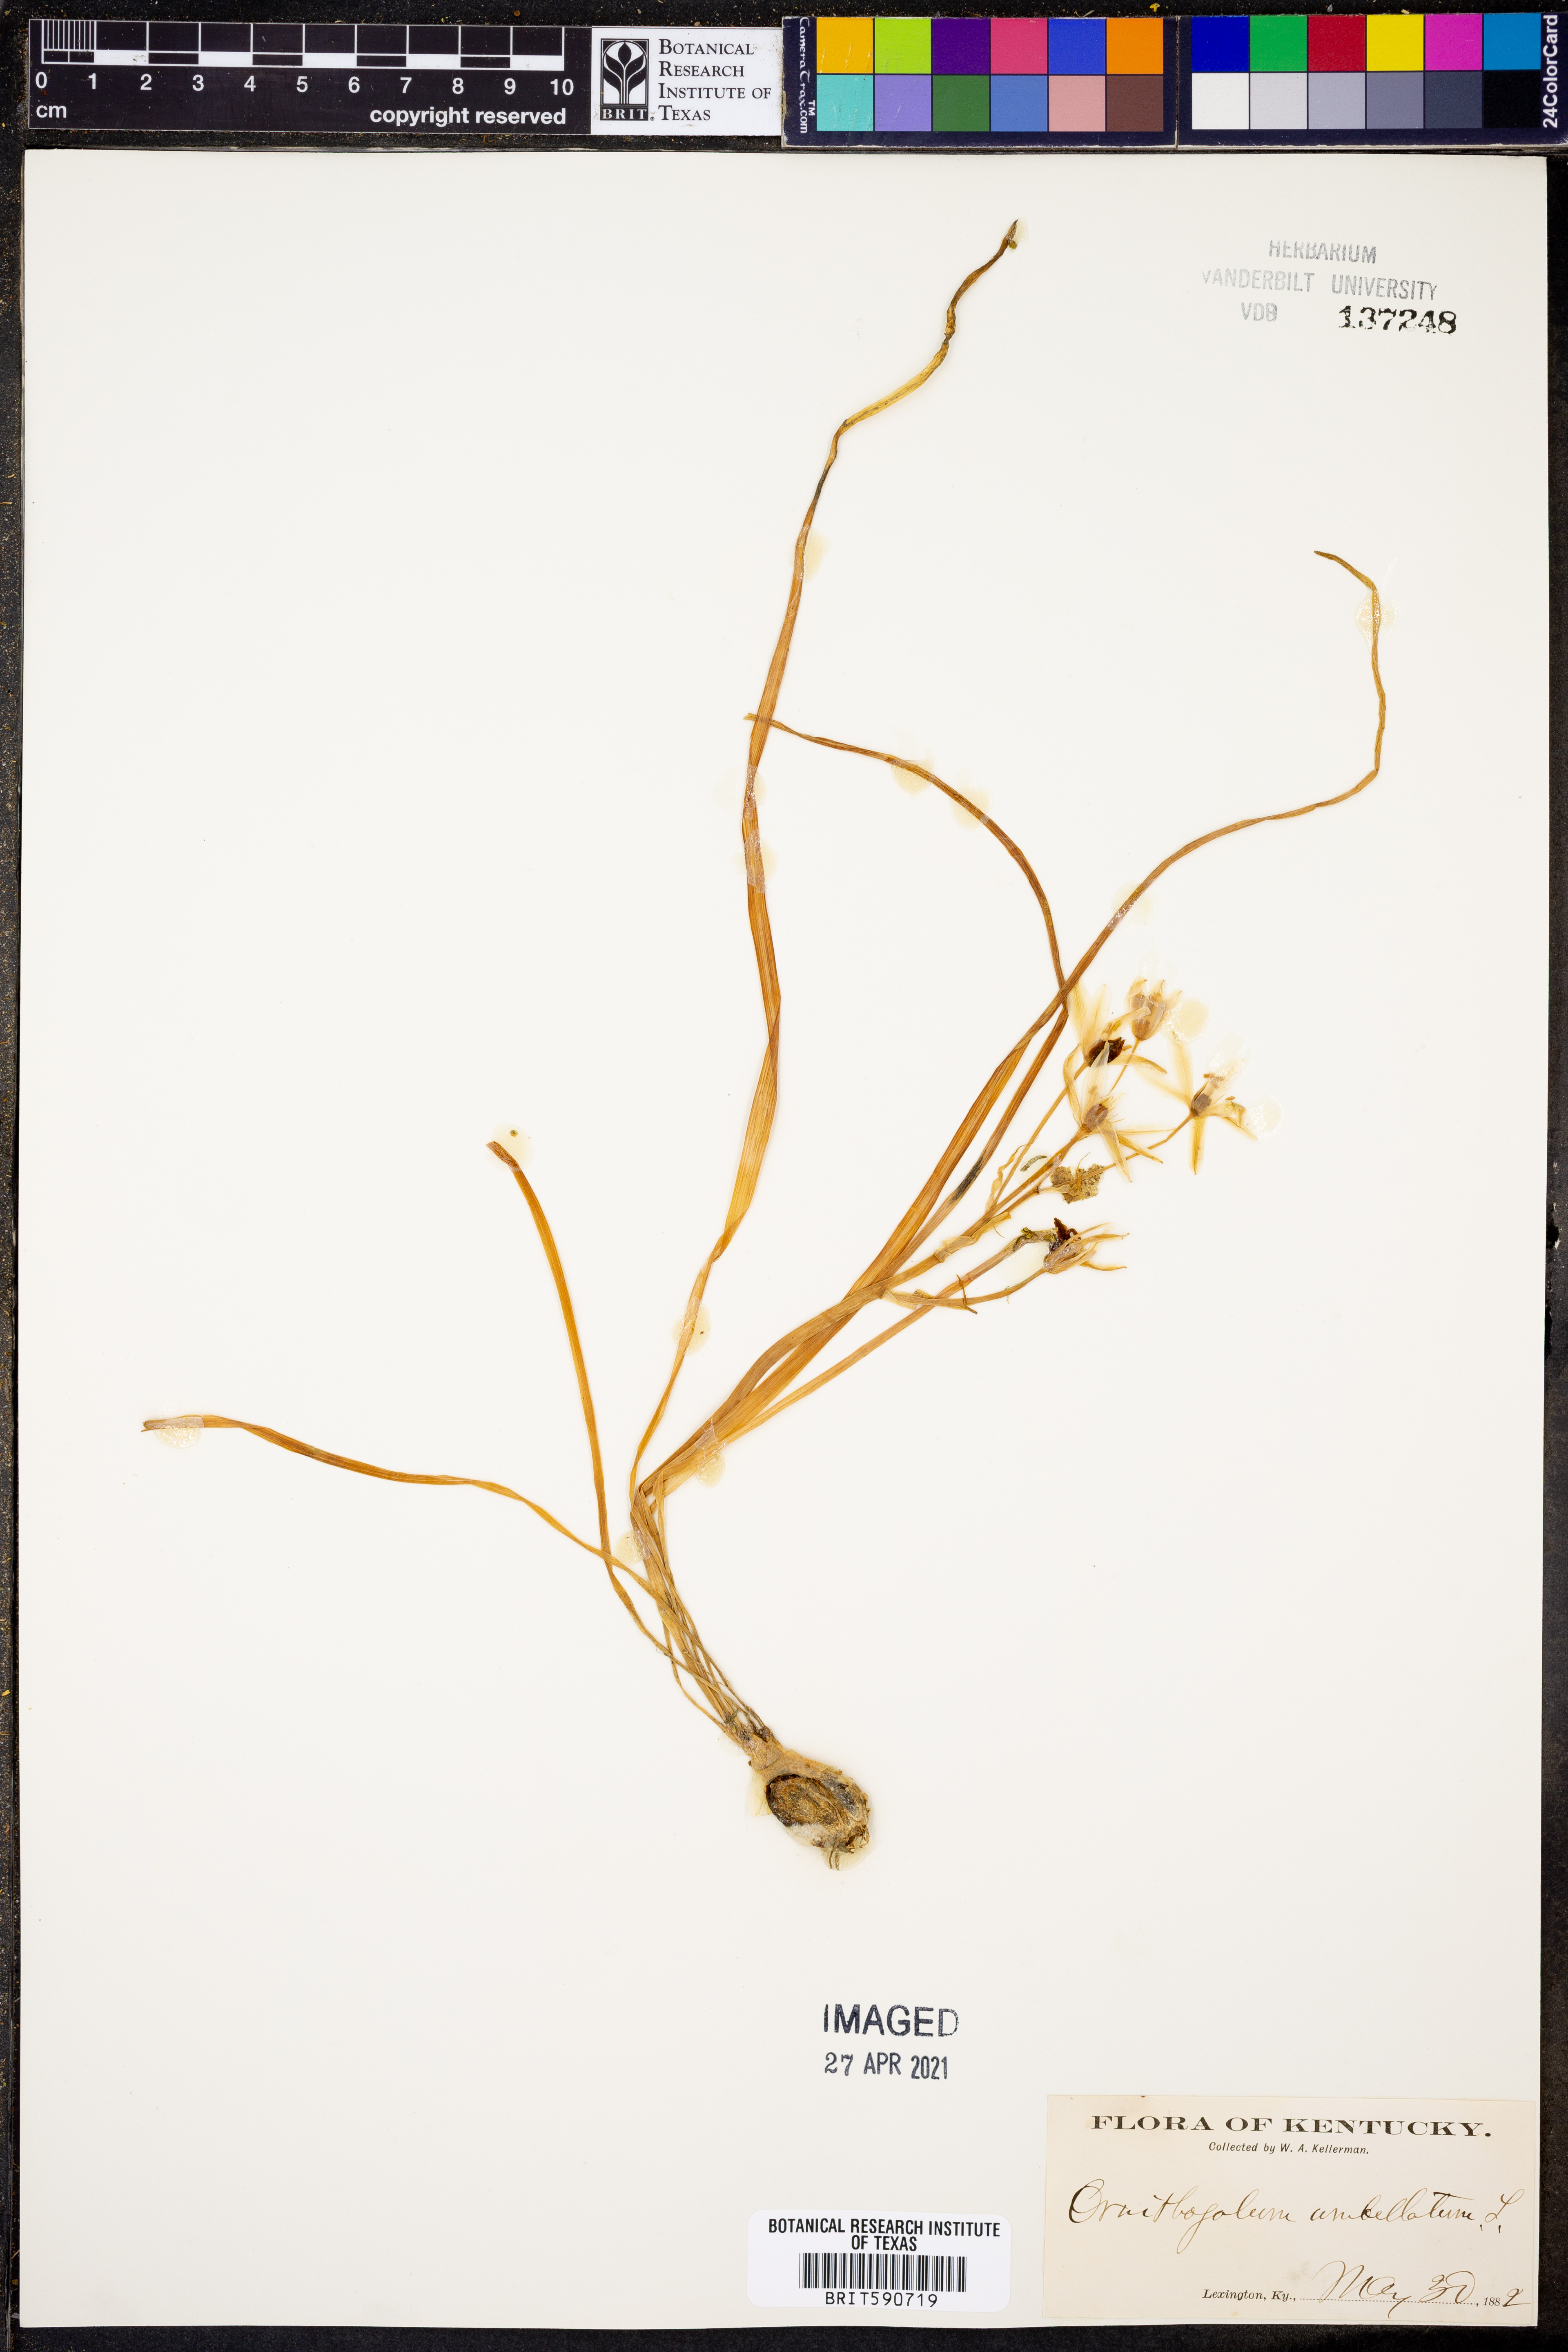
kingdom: Plantae
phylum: Tracheophyta
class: Liliopsida
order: Asparagales
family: Asparagaceae
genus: Ornithogalum
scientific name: Ornithogalum umbellatum
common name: Garden star-of-bethlehem
